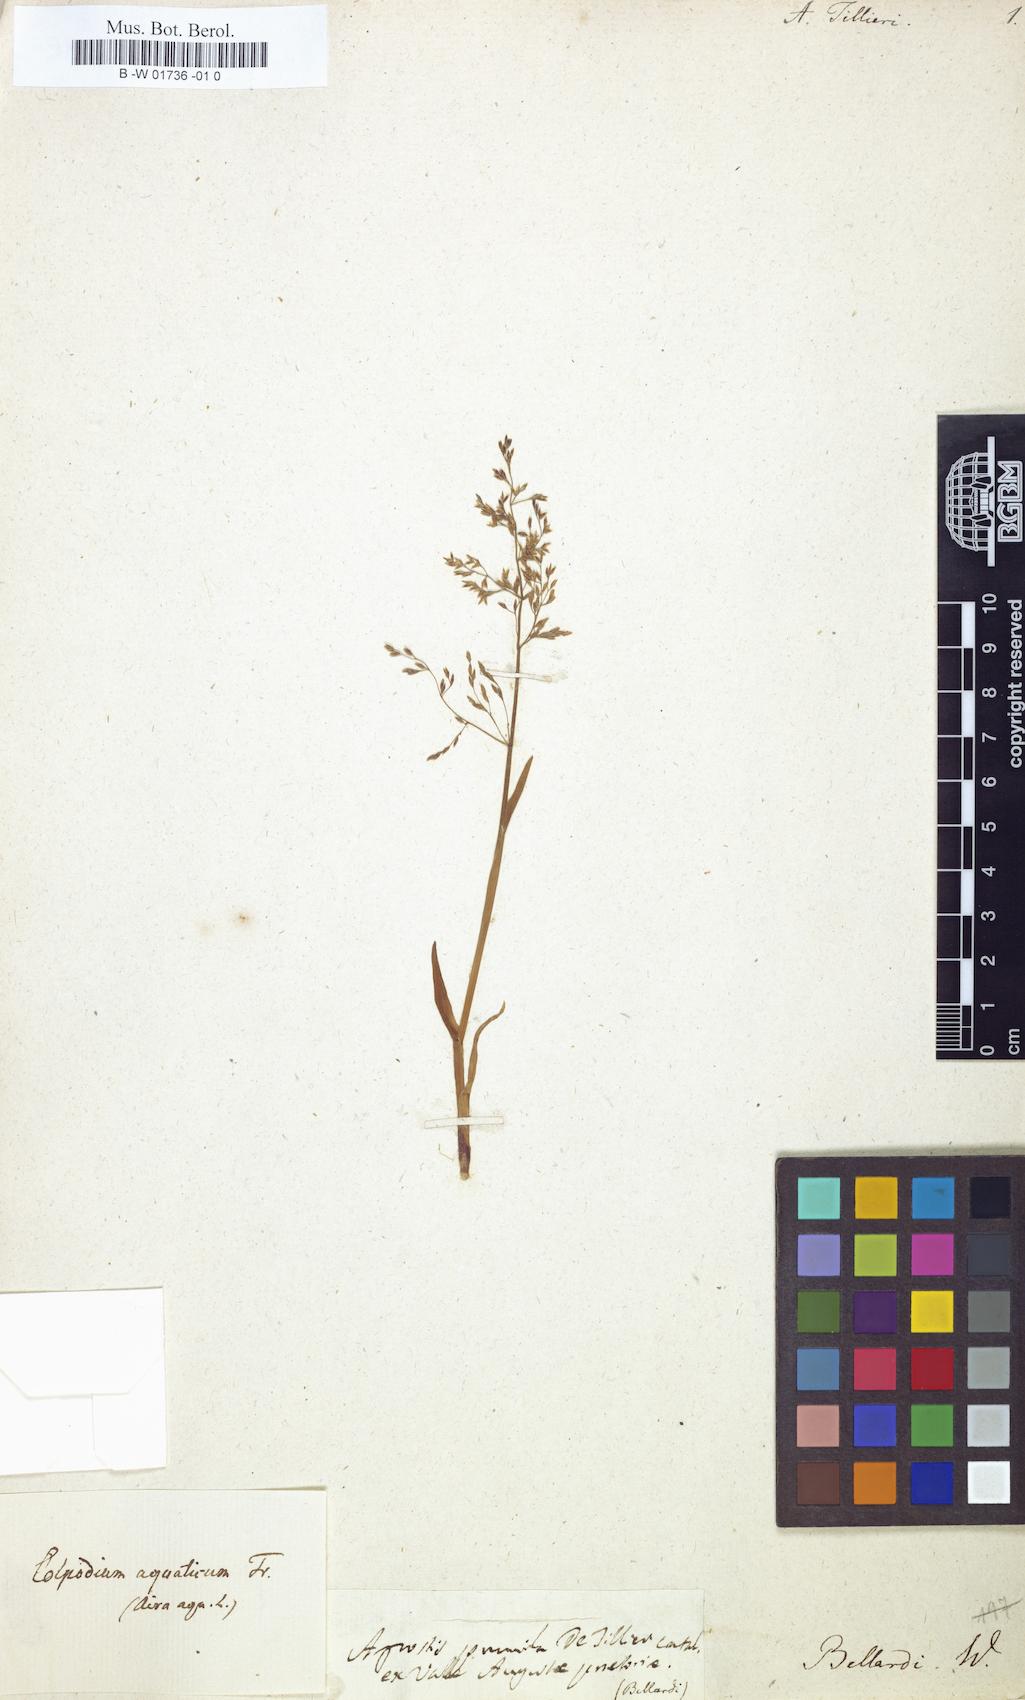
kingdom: Plantae
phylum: Tracheophyta
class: Liliopsida
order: Poales
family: Poaceae
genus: Catabrosa
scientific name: Catabrosa aquatica
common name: Whorl-grass
